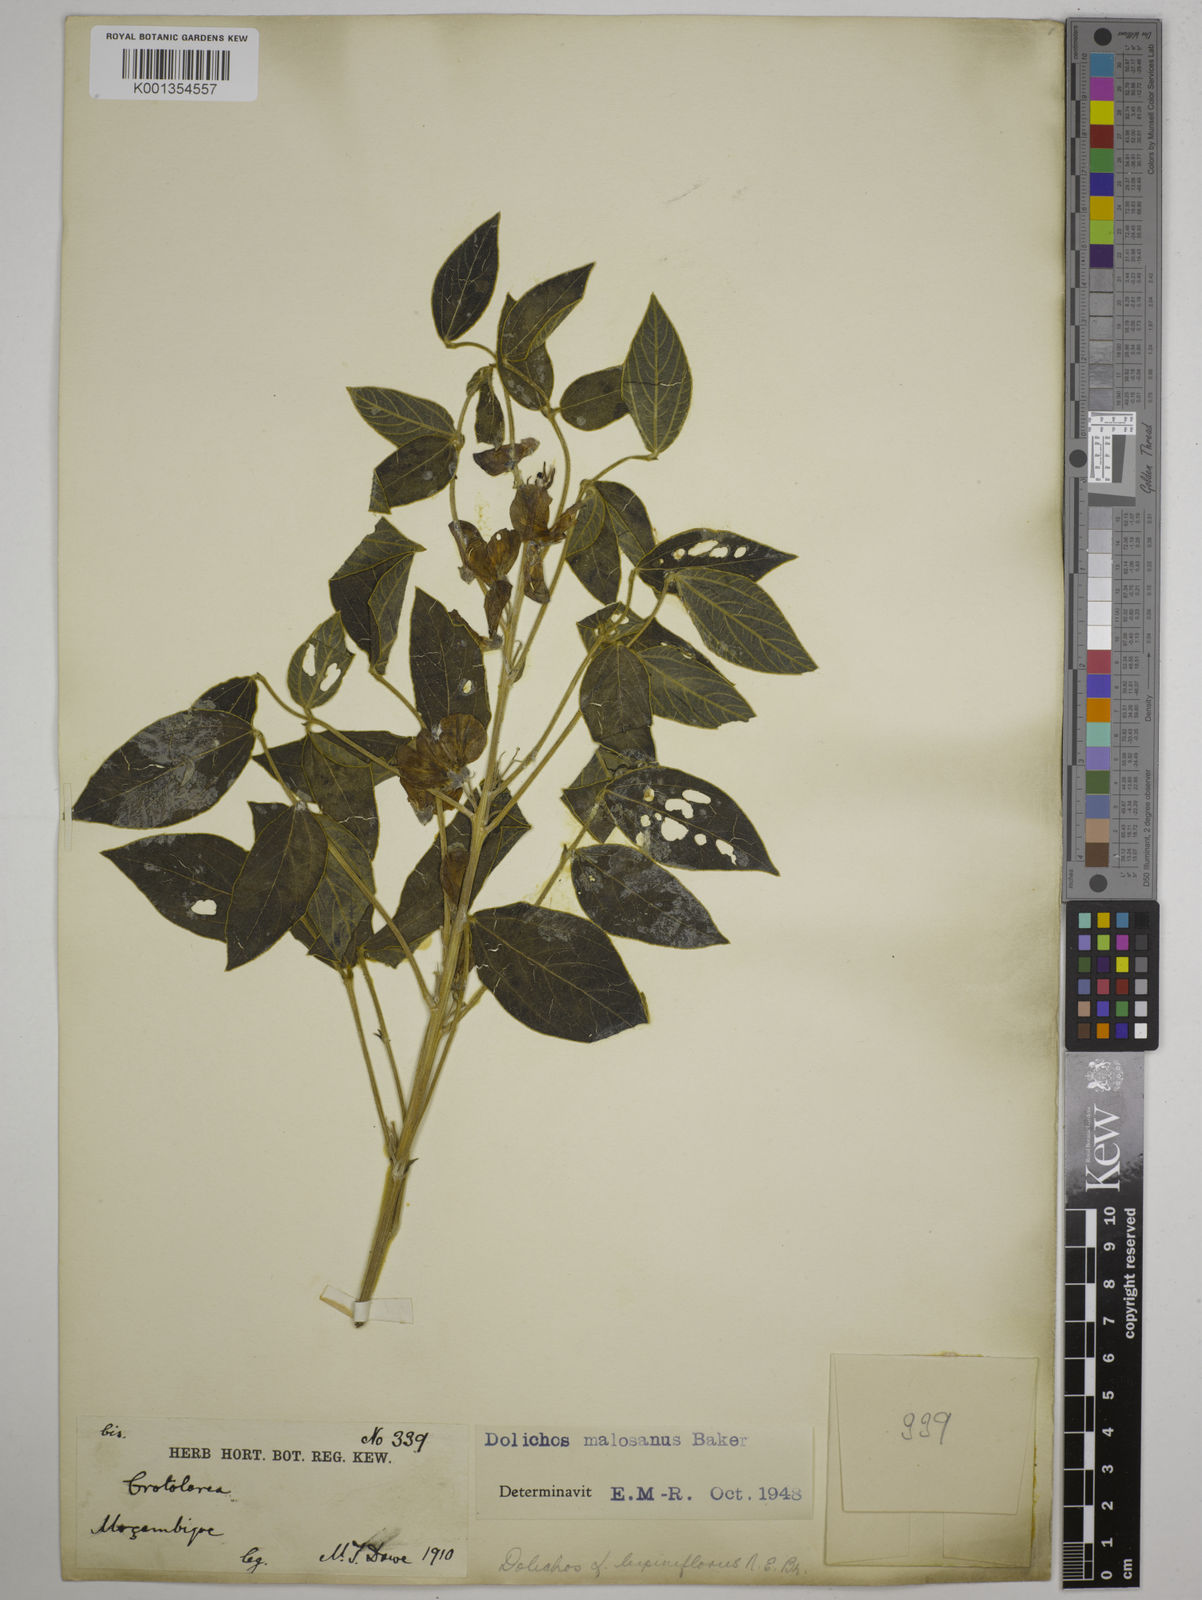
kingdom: Plantae
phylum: Tracheophyta
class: Magnoliopsida
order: Fabales
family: Fabaceae
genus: Dolichos
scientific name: Dolichos kilimandscharicus
